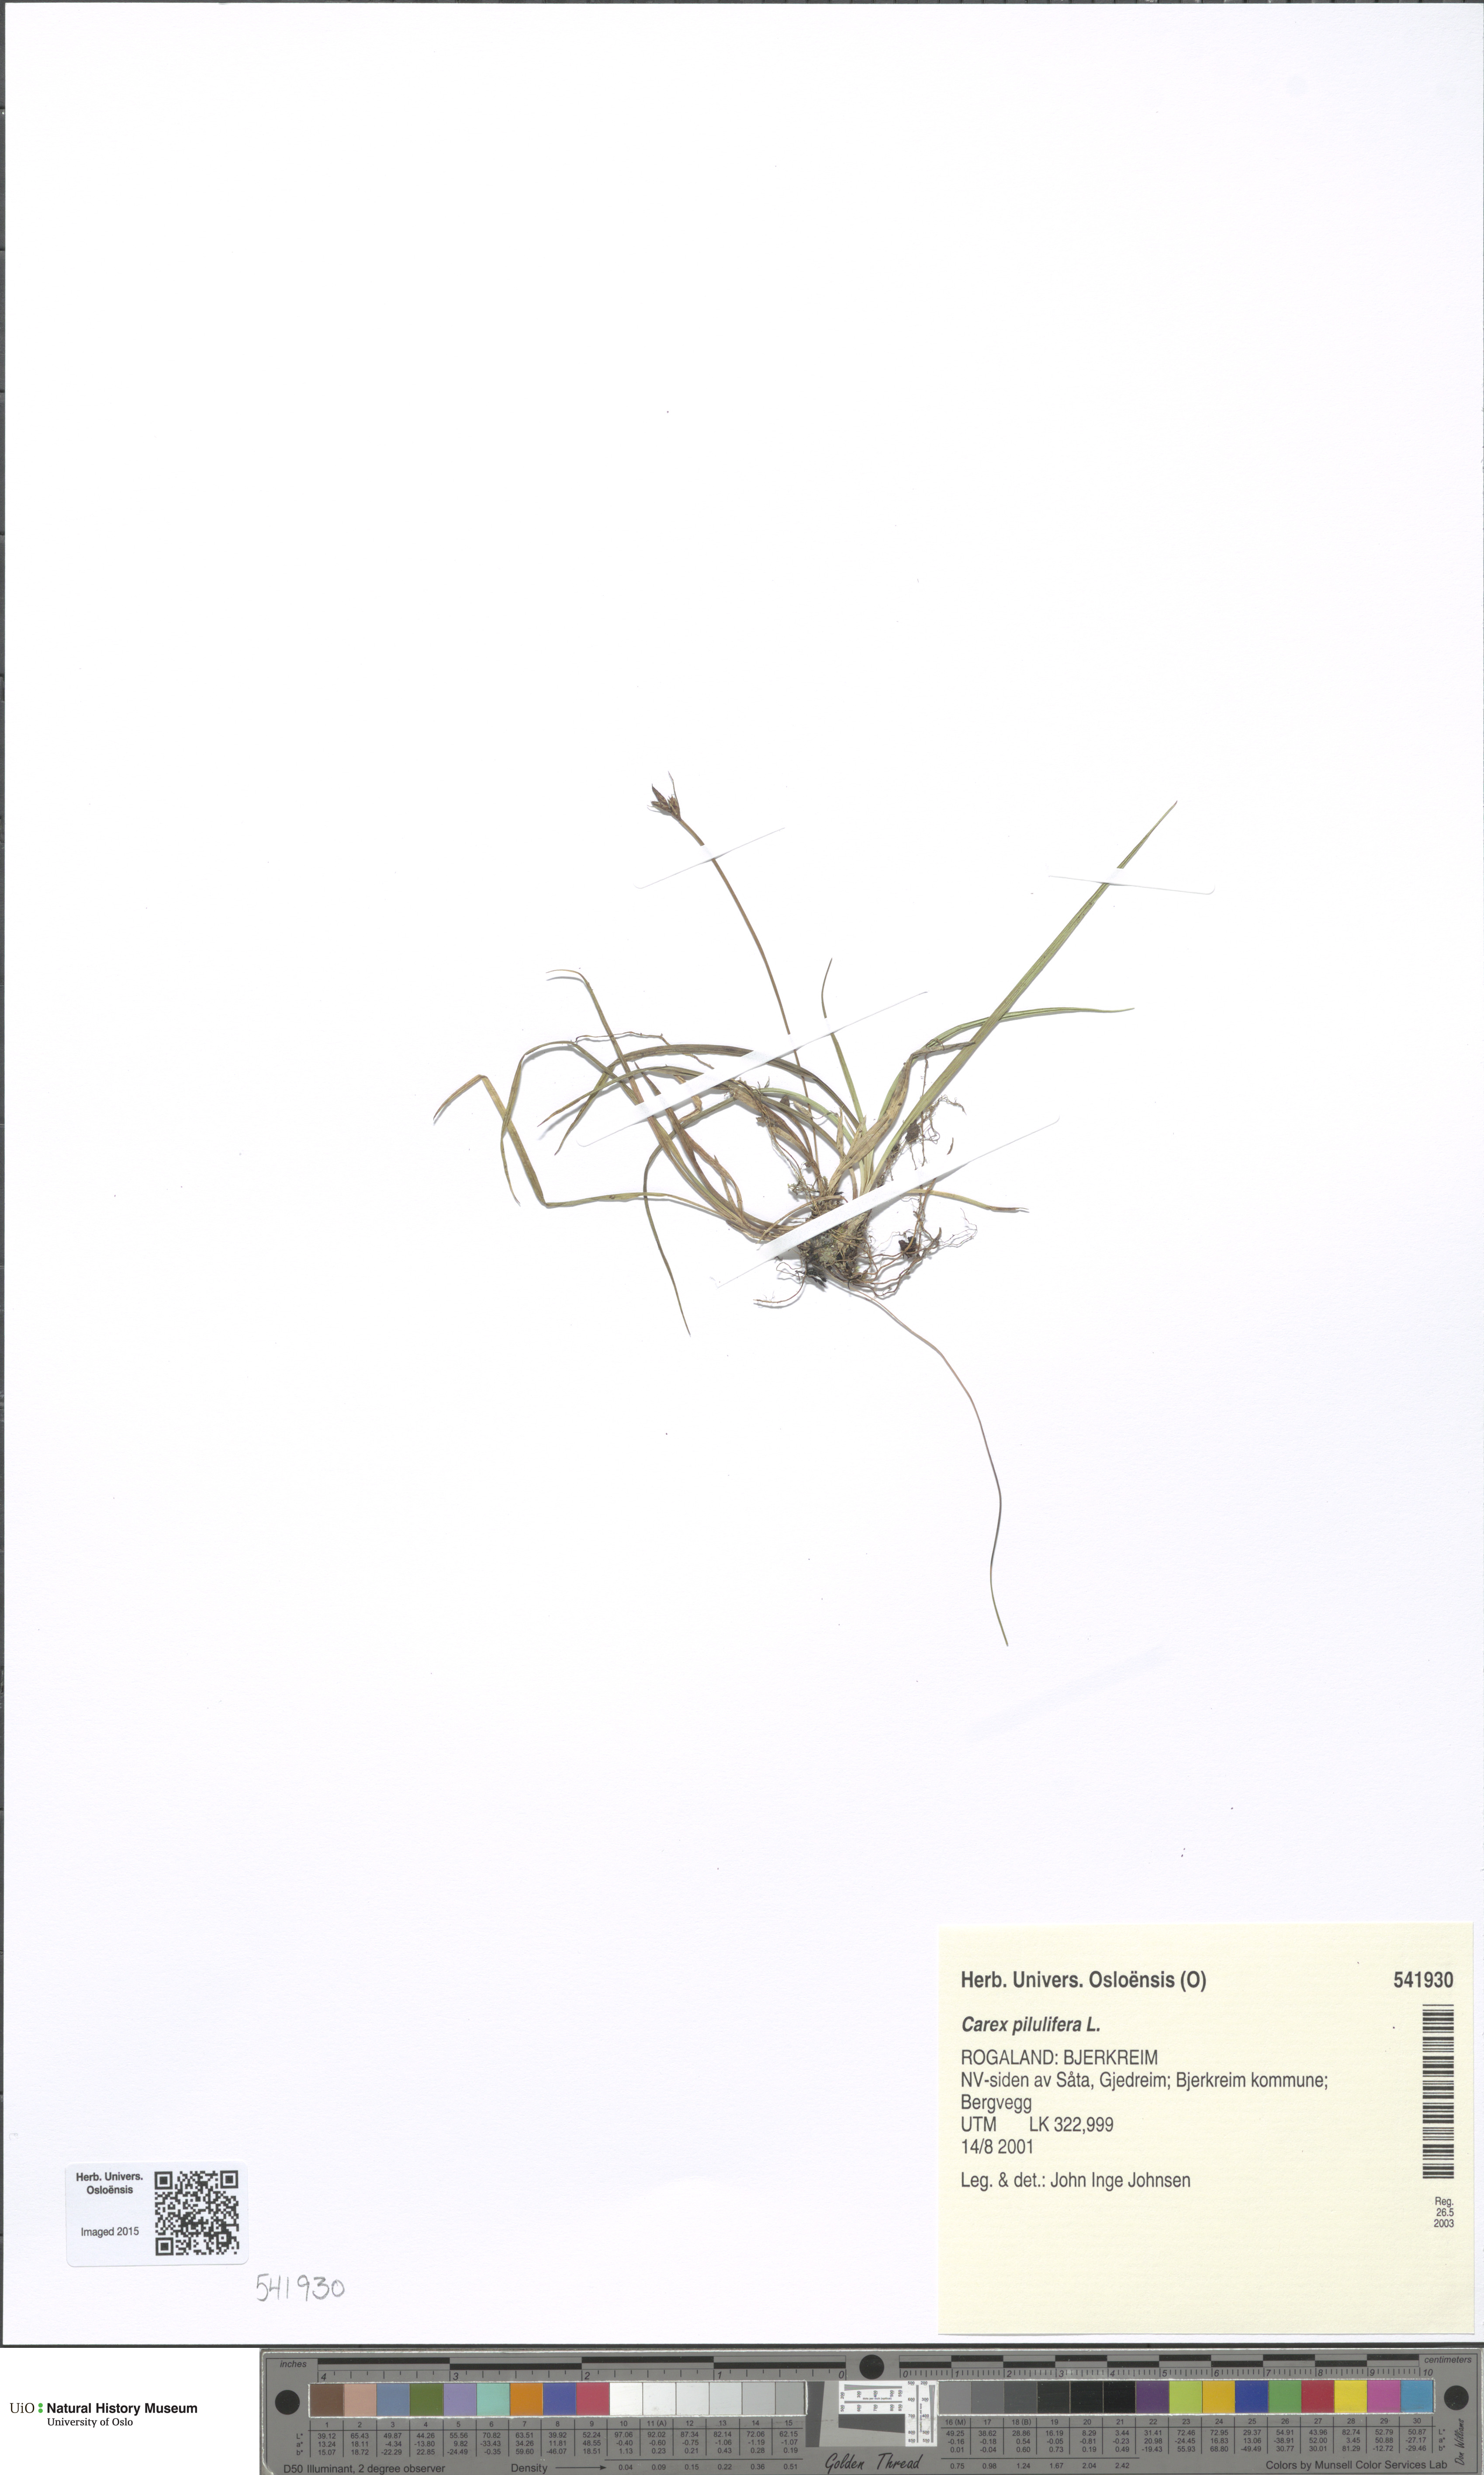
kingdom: Plantae
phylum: Tracheophyta
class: Liliopsida
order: Poales
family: Cyperaceae
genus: Carex
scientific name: Carex pilulifera
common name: Pill sedge
